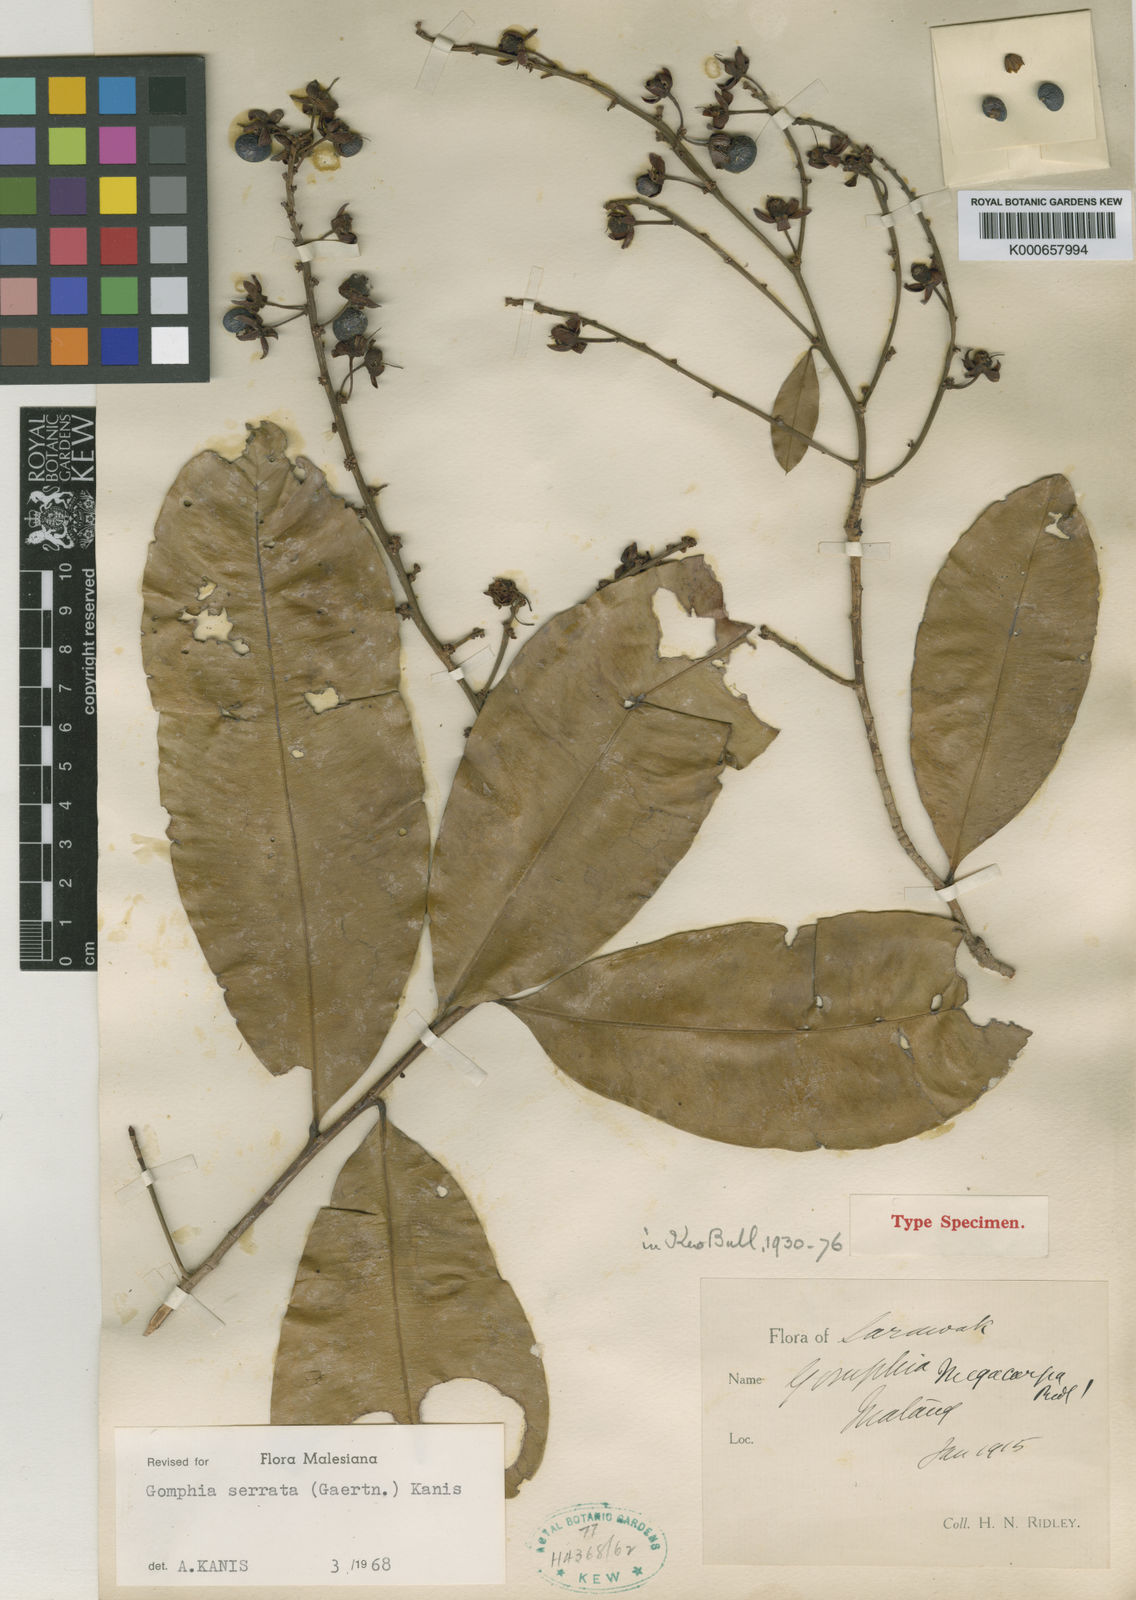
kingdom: Plantae
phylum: Tracheophyta
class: Magnoliopsida
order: Malpighiales
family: Ochnaceae
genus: Gomphia
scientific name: Gomphia serrata
